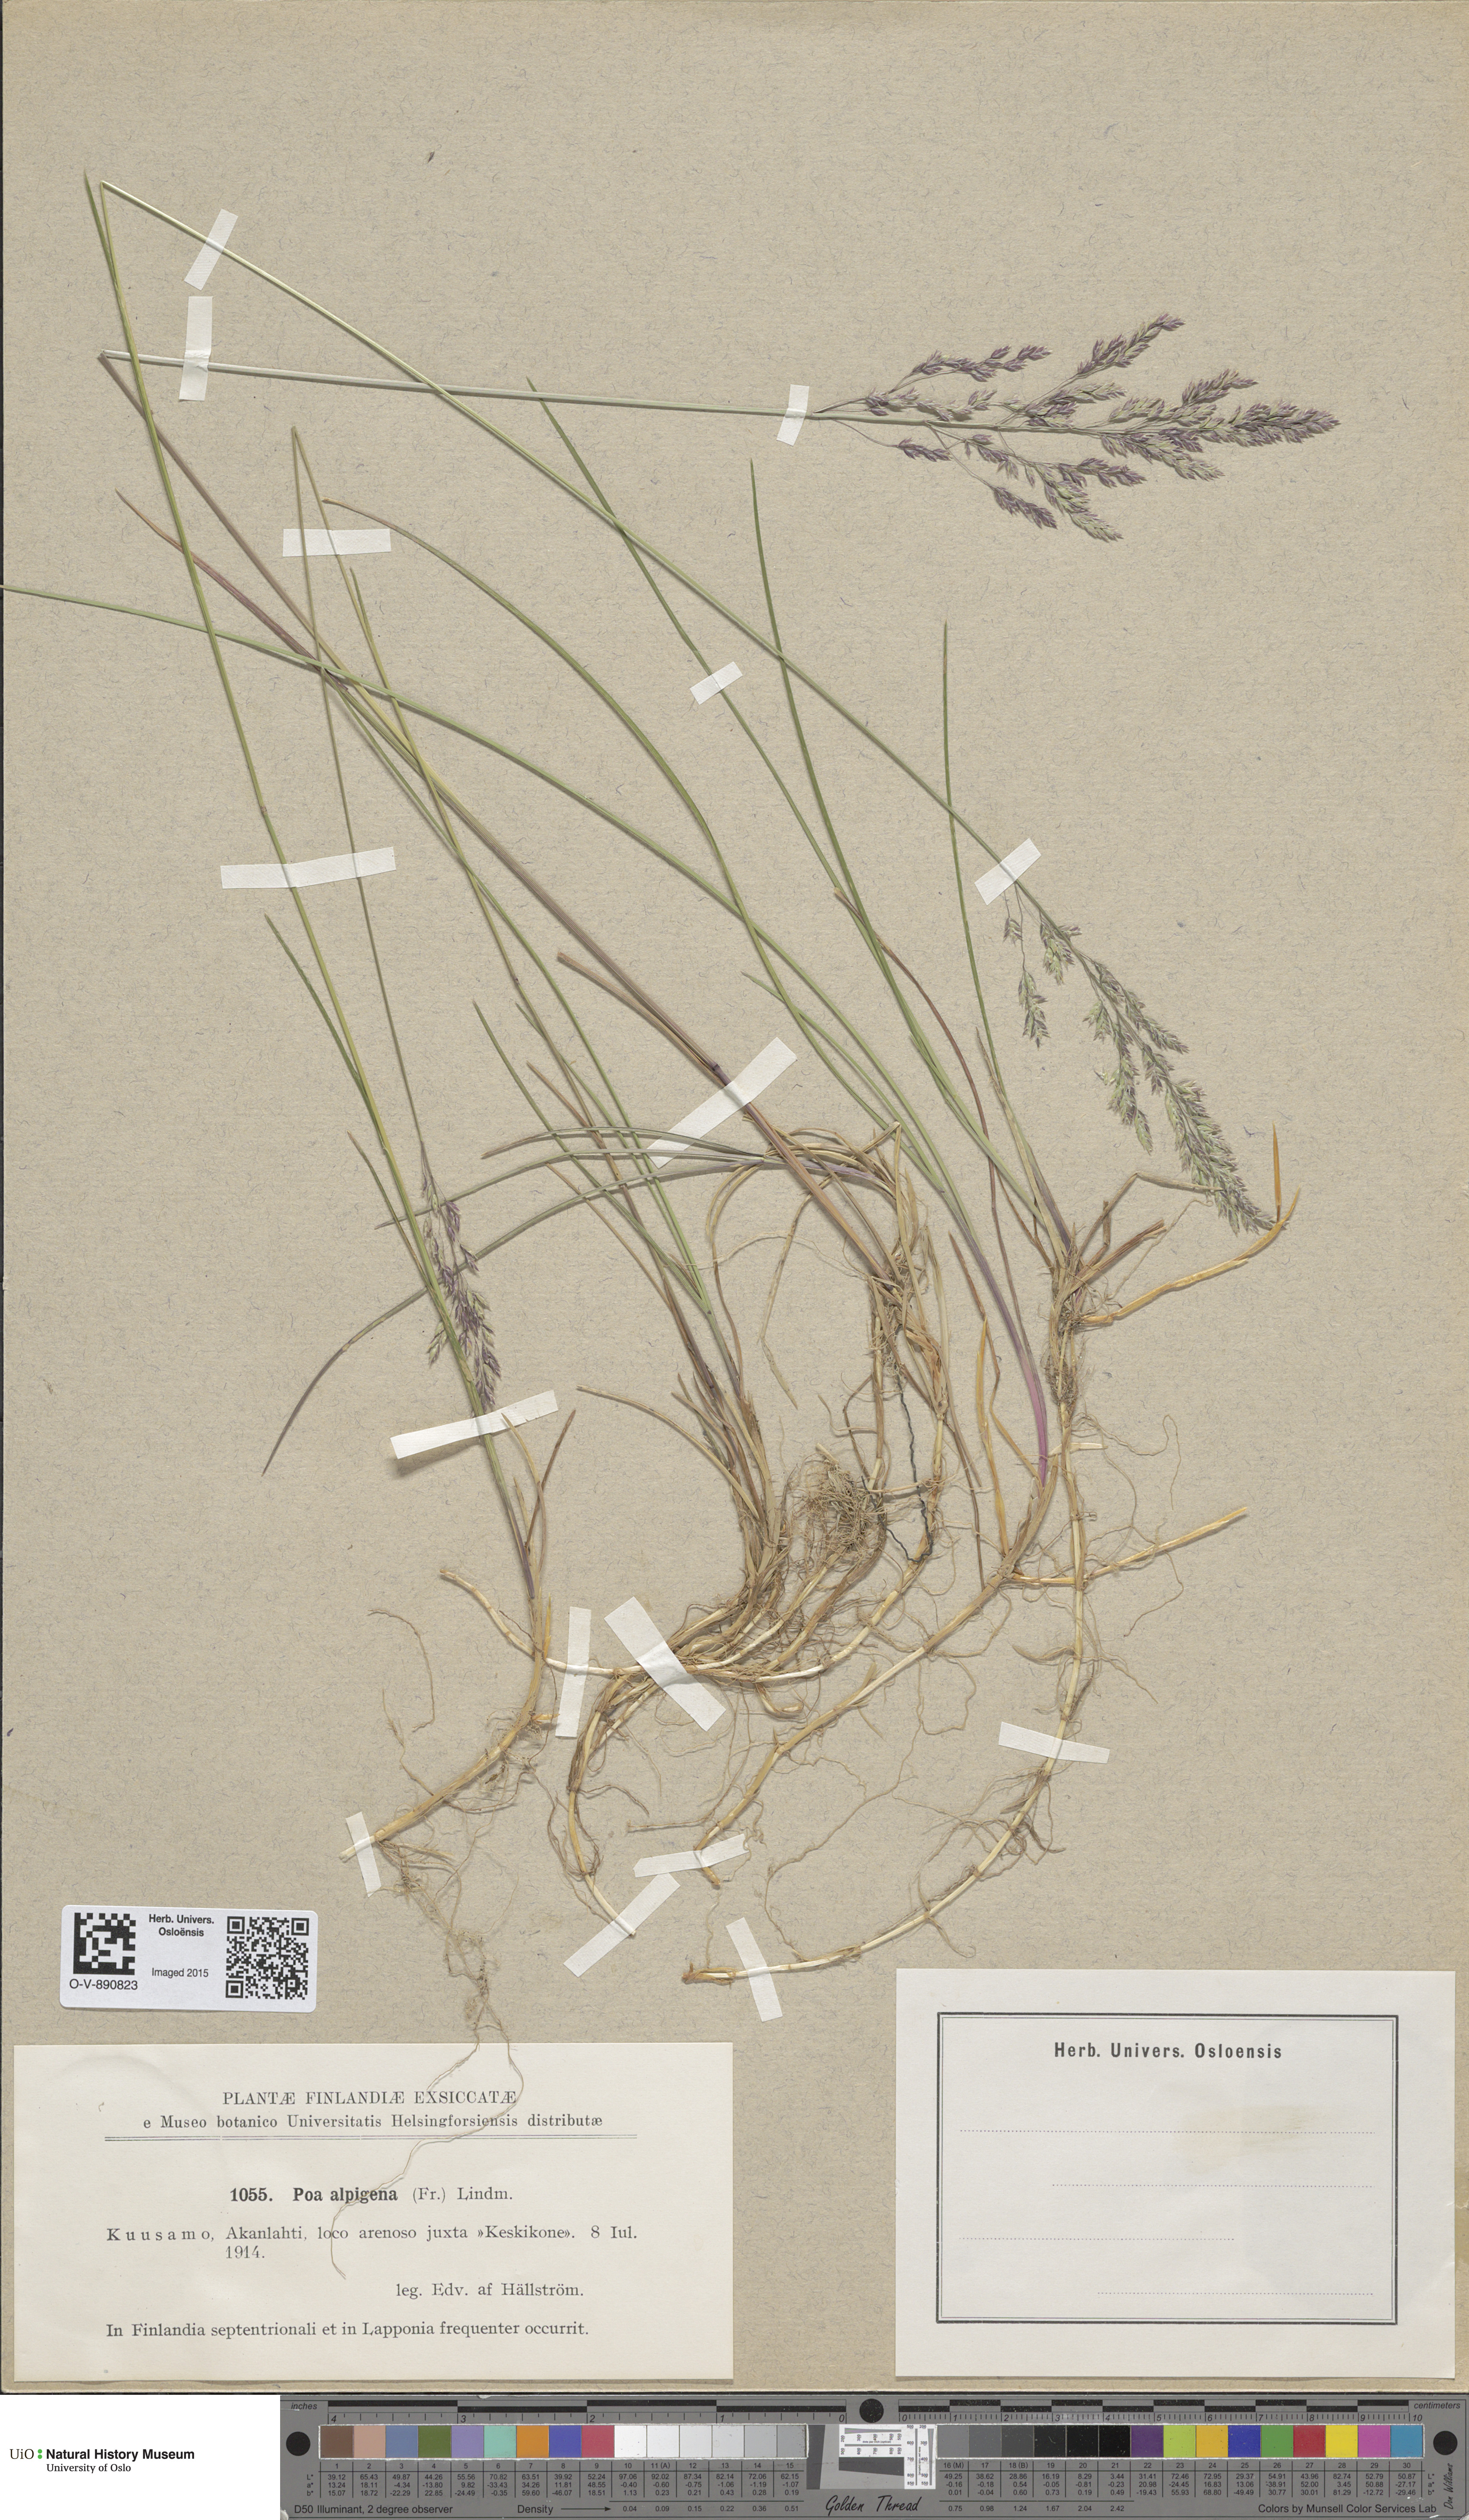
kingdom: Plantae
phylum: Tracheophyta
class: Liliopsida
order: Poales
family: Poaceae
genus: Poa
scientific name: Poa alpigena
